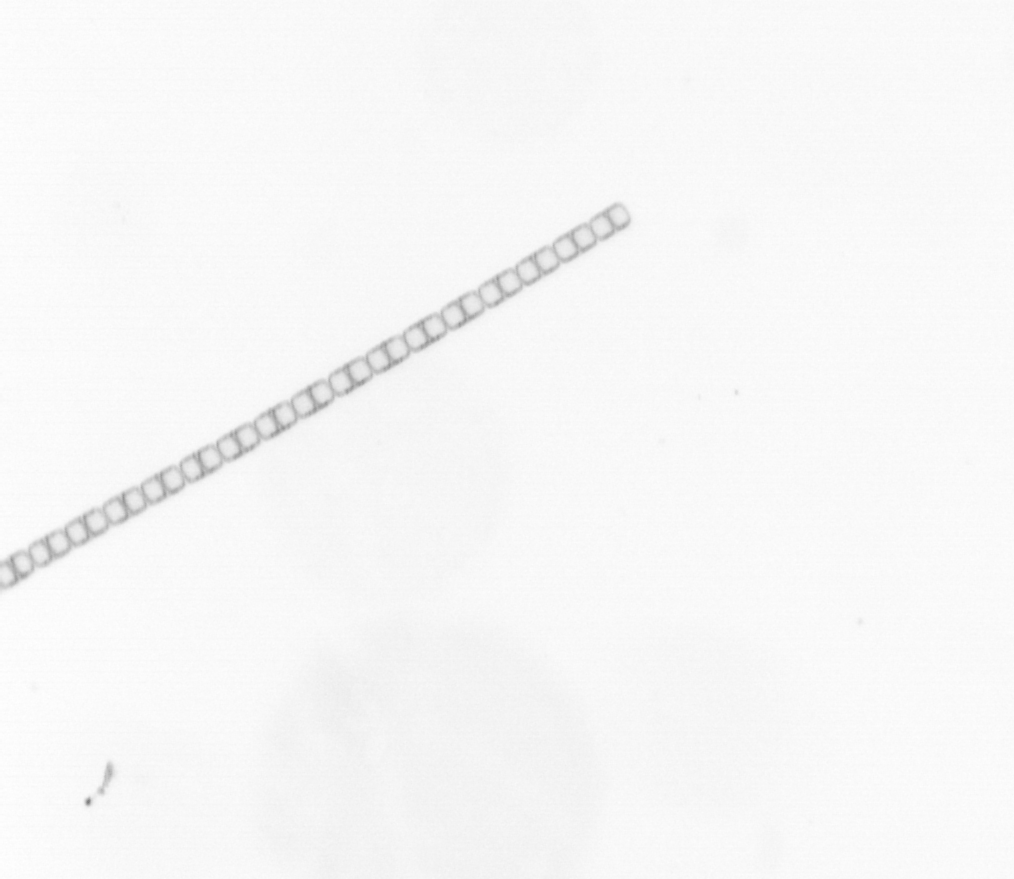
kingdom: Chromista
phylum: Ochrophyta
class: Bacillariophyceae
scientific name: Bacillariophyceae
